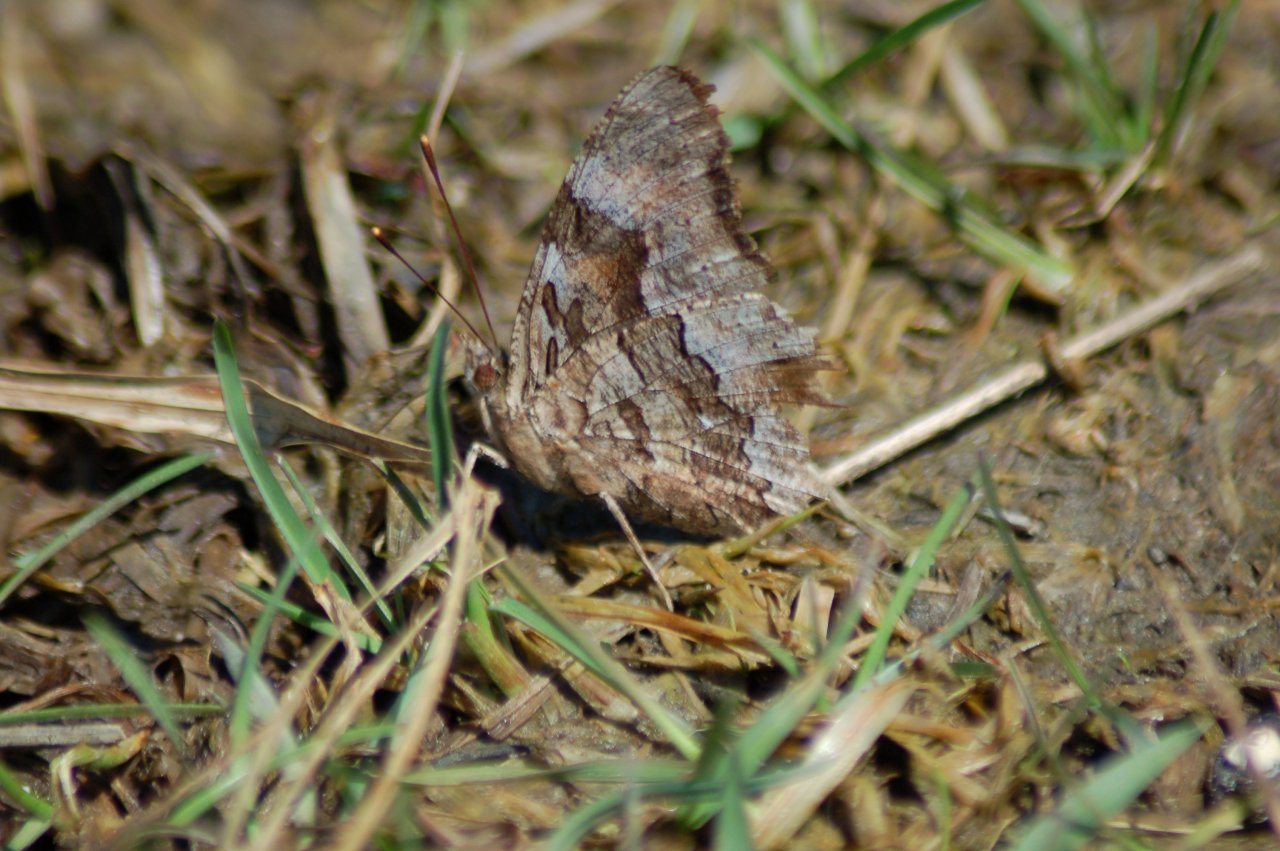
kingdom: Animalia
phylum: Arthropoda
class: Insecta
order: Lepidoptera
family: Nymphalidae
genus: Polygonia
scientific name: Polygonia vaualbum
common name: Compton Tortoiseshell
